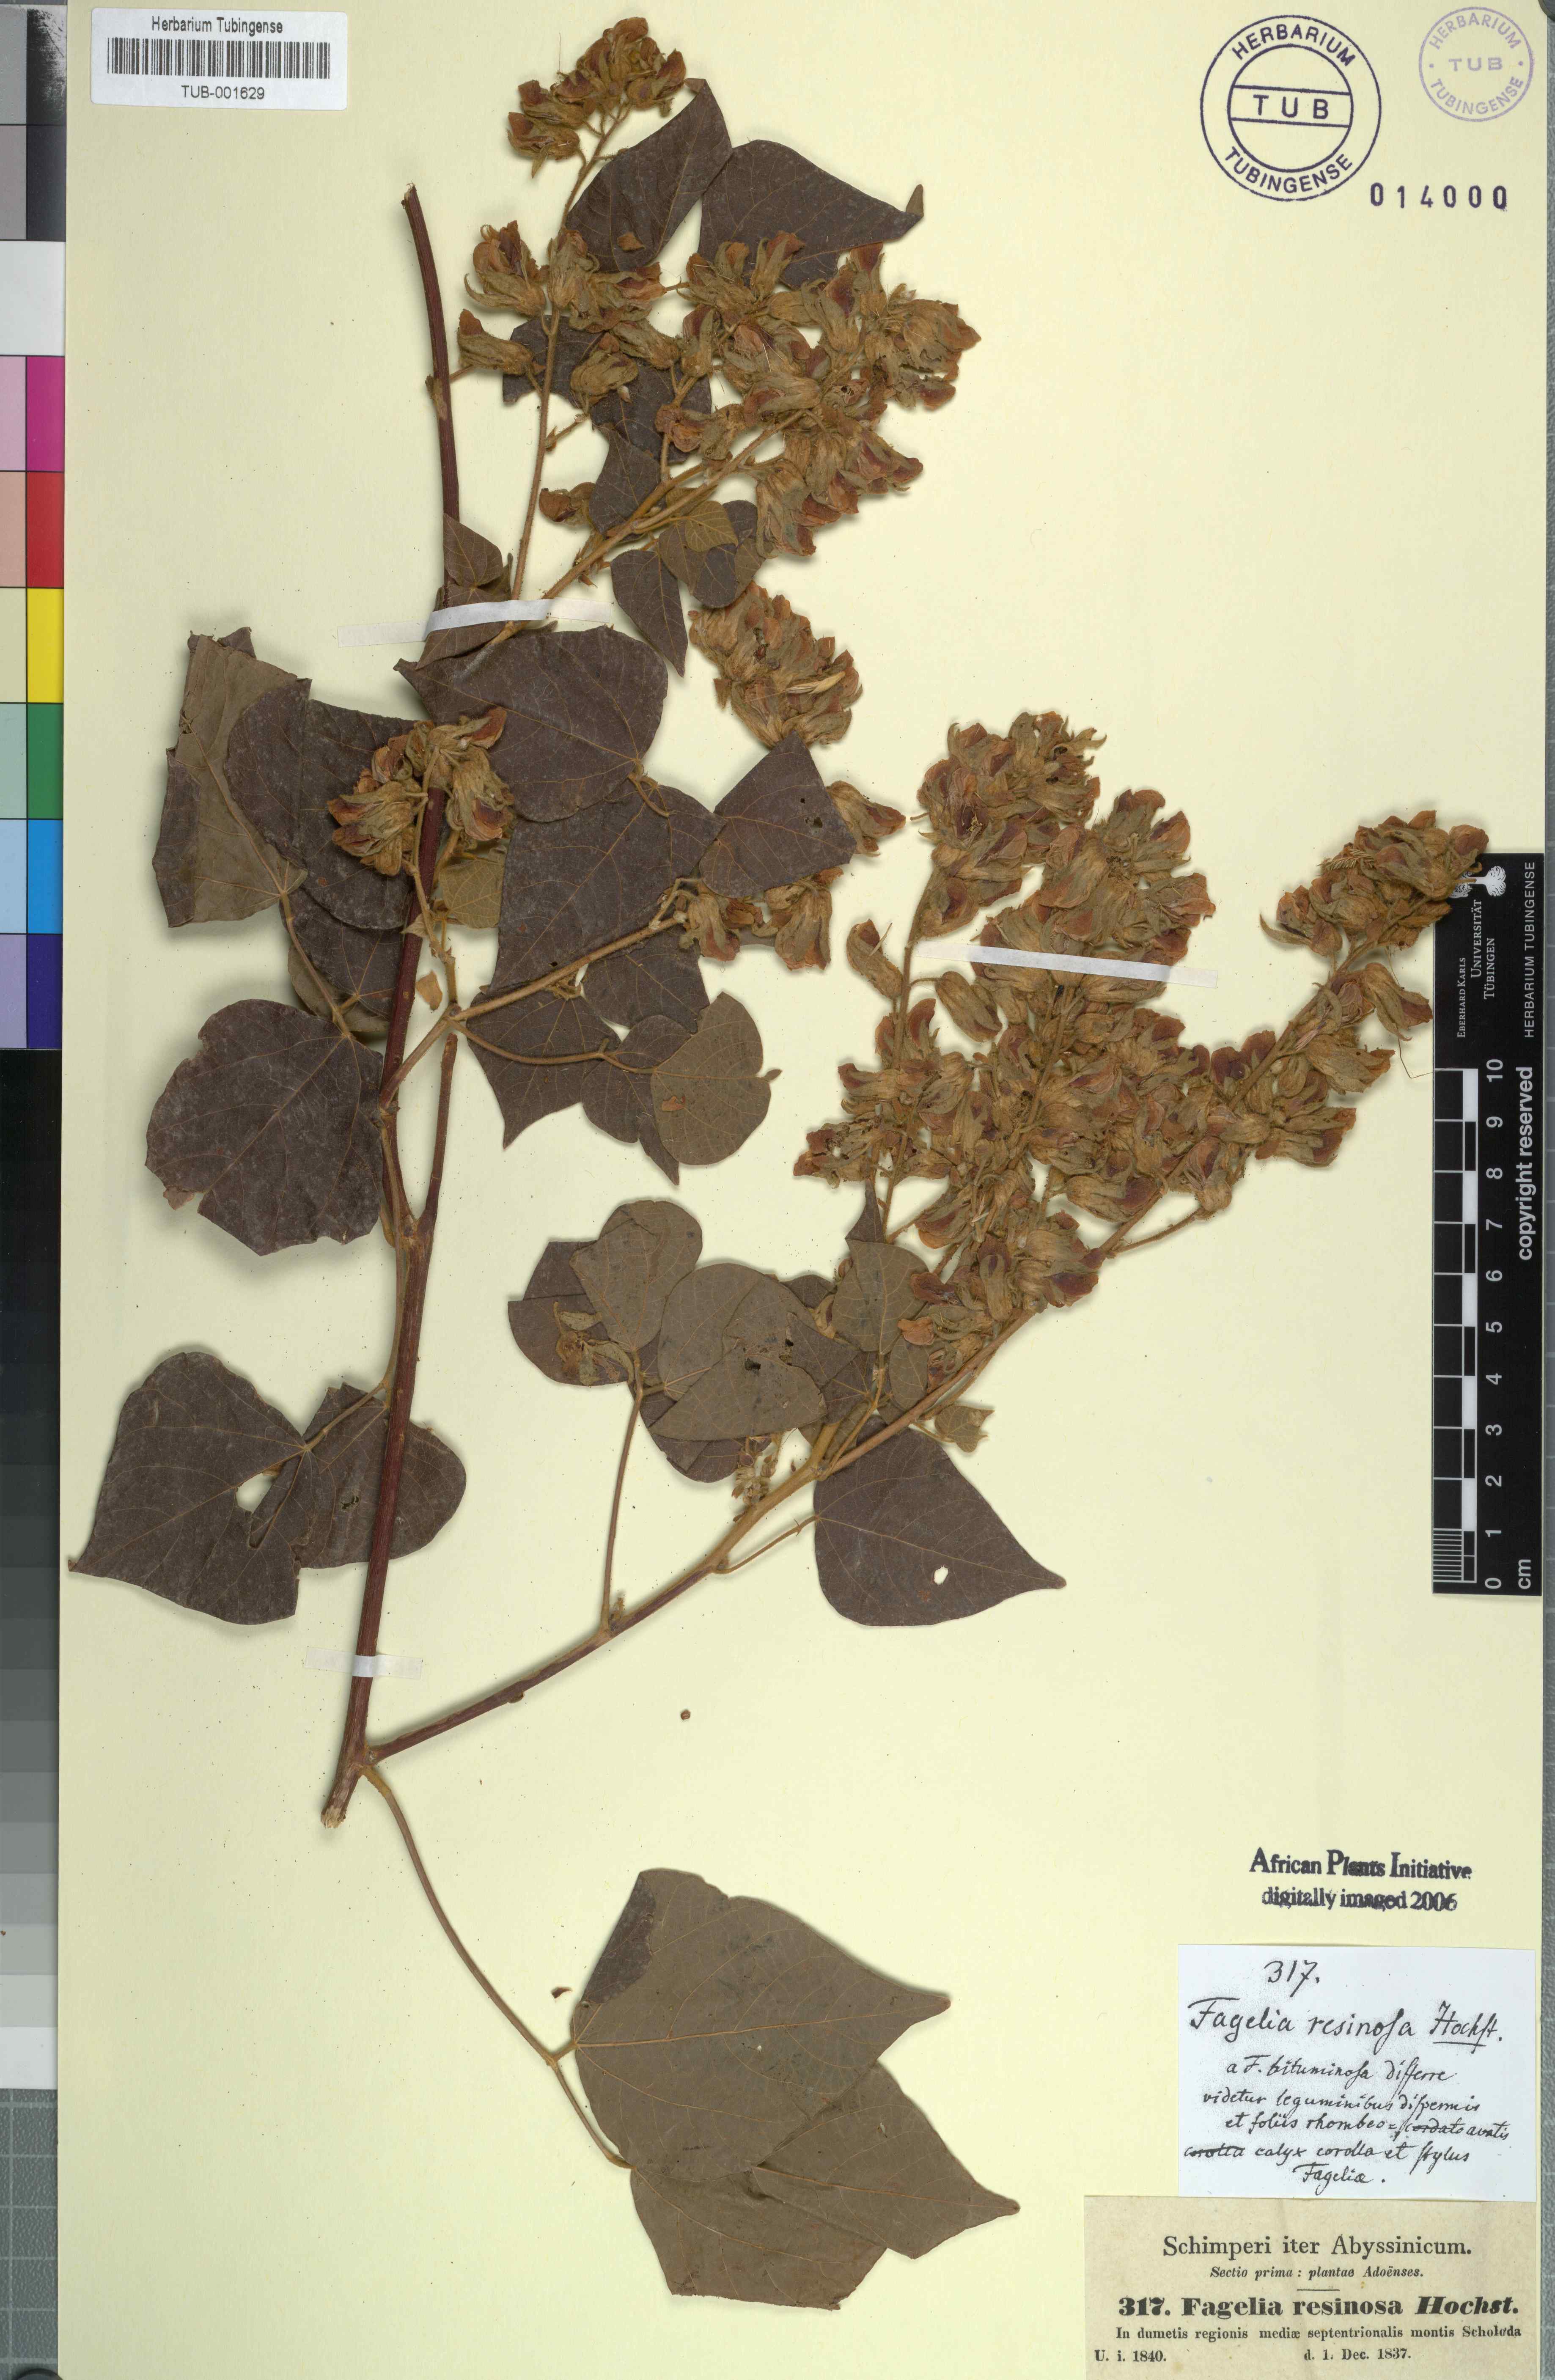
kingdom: Plantae
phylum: Tracheophyta
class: Magnoliopsida
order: Fabales
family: Fabaceae
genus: Rhynchosia
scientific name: Rhynchosia resinosa
